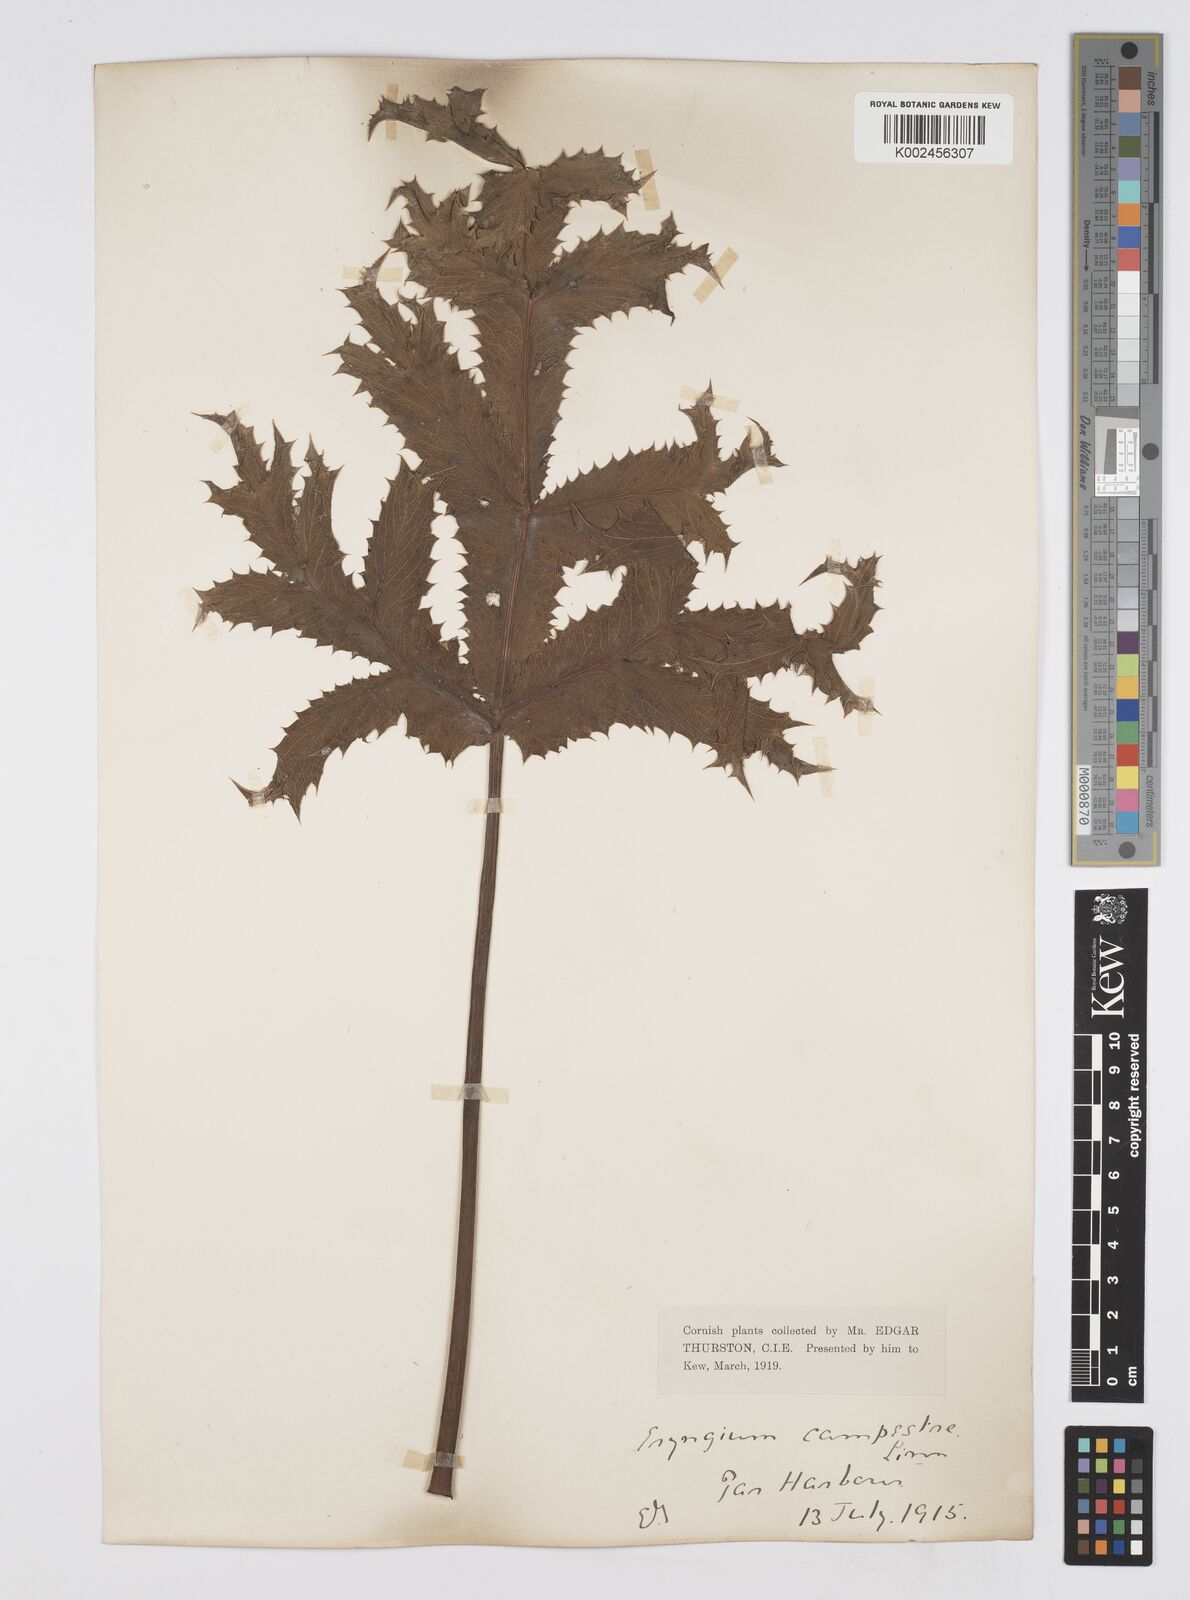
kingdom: Plantae
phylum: Tracheophyta
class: Magnoliopsida
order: Apiales
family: Apiaceae
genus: Eryngium
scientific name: Eryngium campestre
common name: Field eryngo
